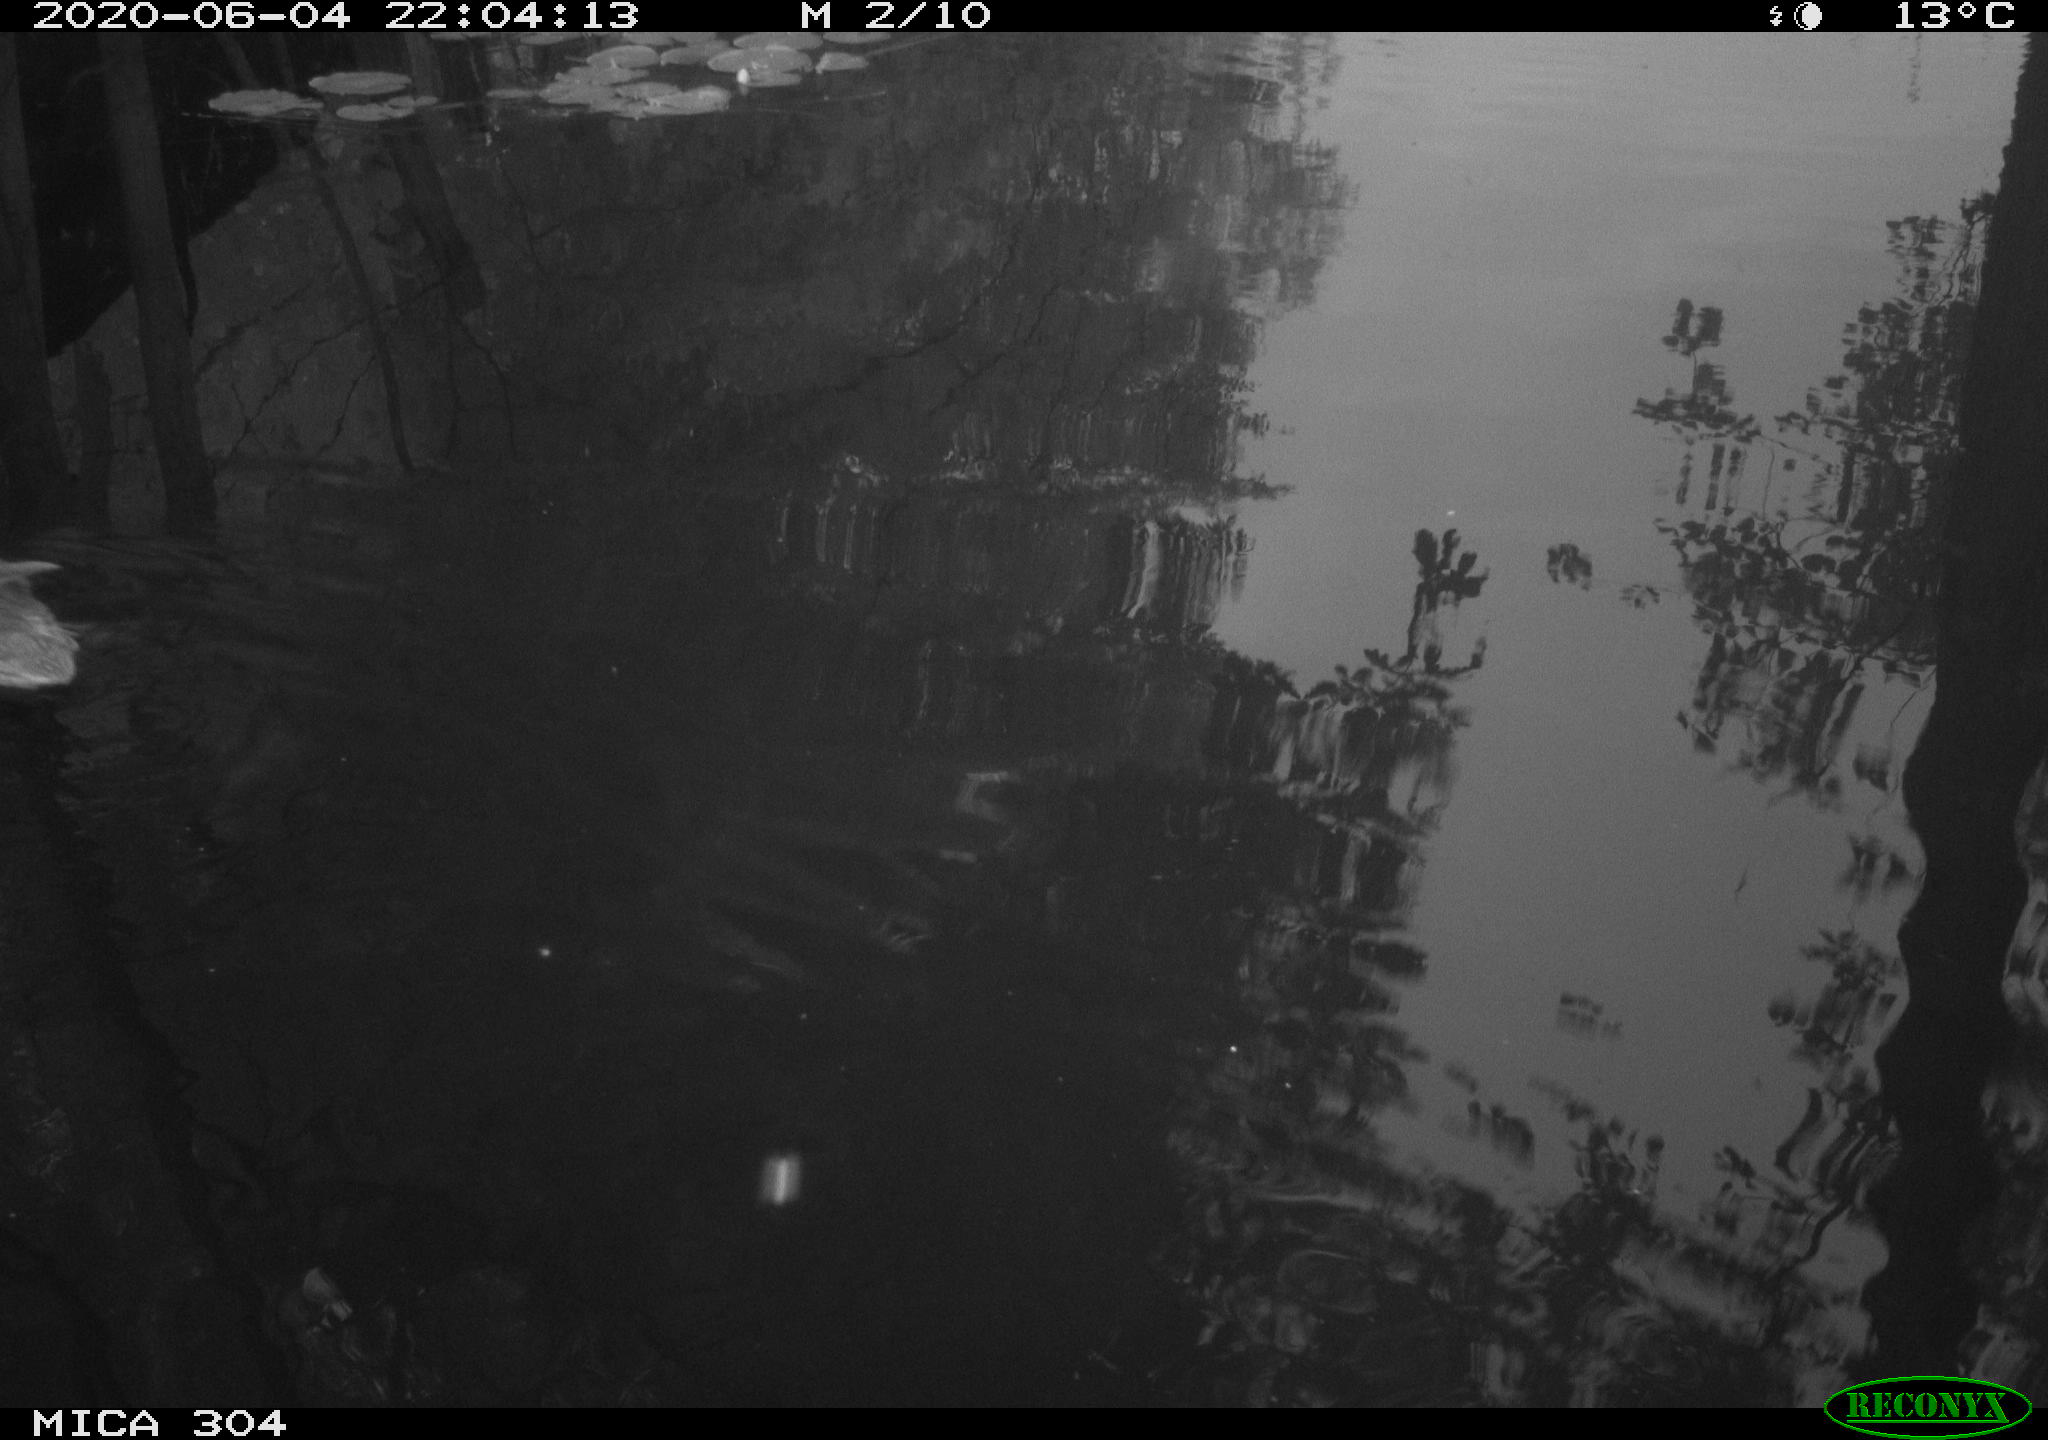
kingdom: Animalia
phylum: Chordata
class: Aves
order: Anseriformes
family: Anatidae
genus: Anas
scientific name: Anas platyrhynchos
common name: Mallard
